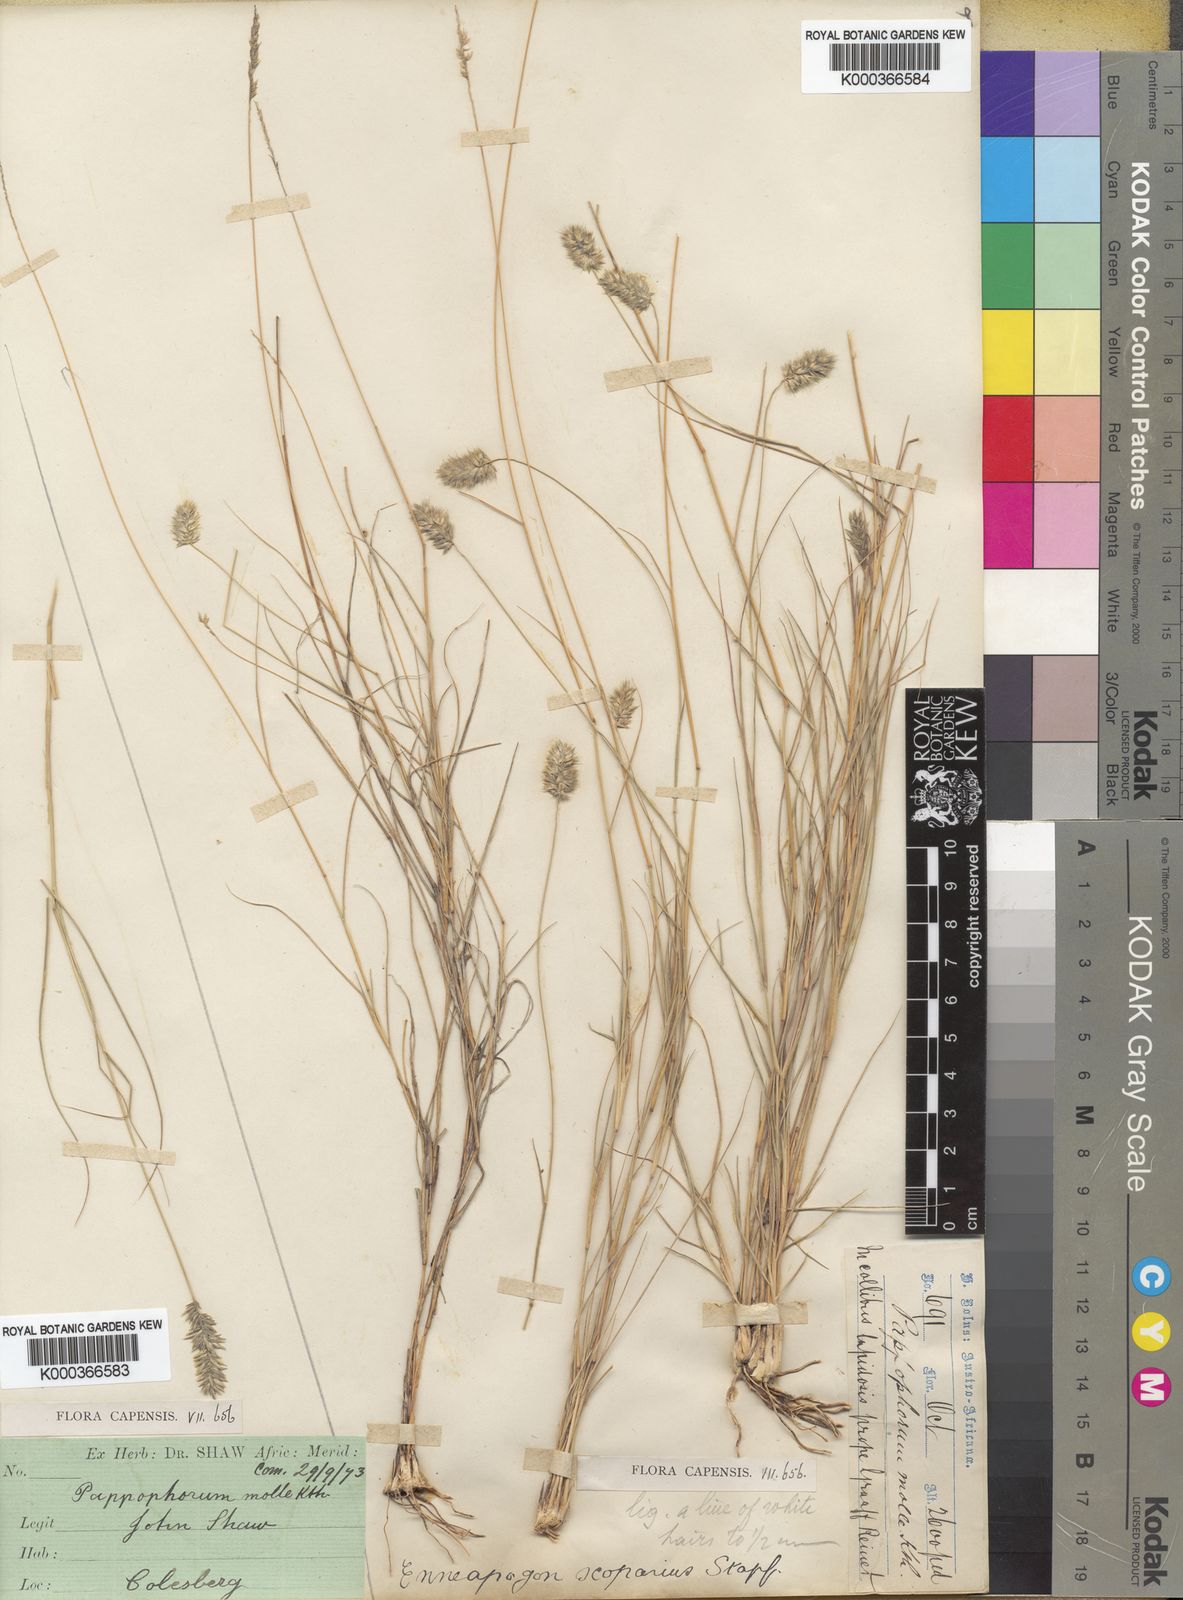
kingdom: Plantae
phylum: Tracheophyta
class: Liliopsida
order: Poales
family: Poaceae
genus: Enneapogon
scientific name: Enneapogon scoparius
